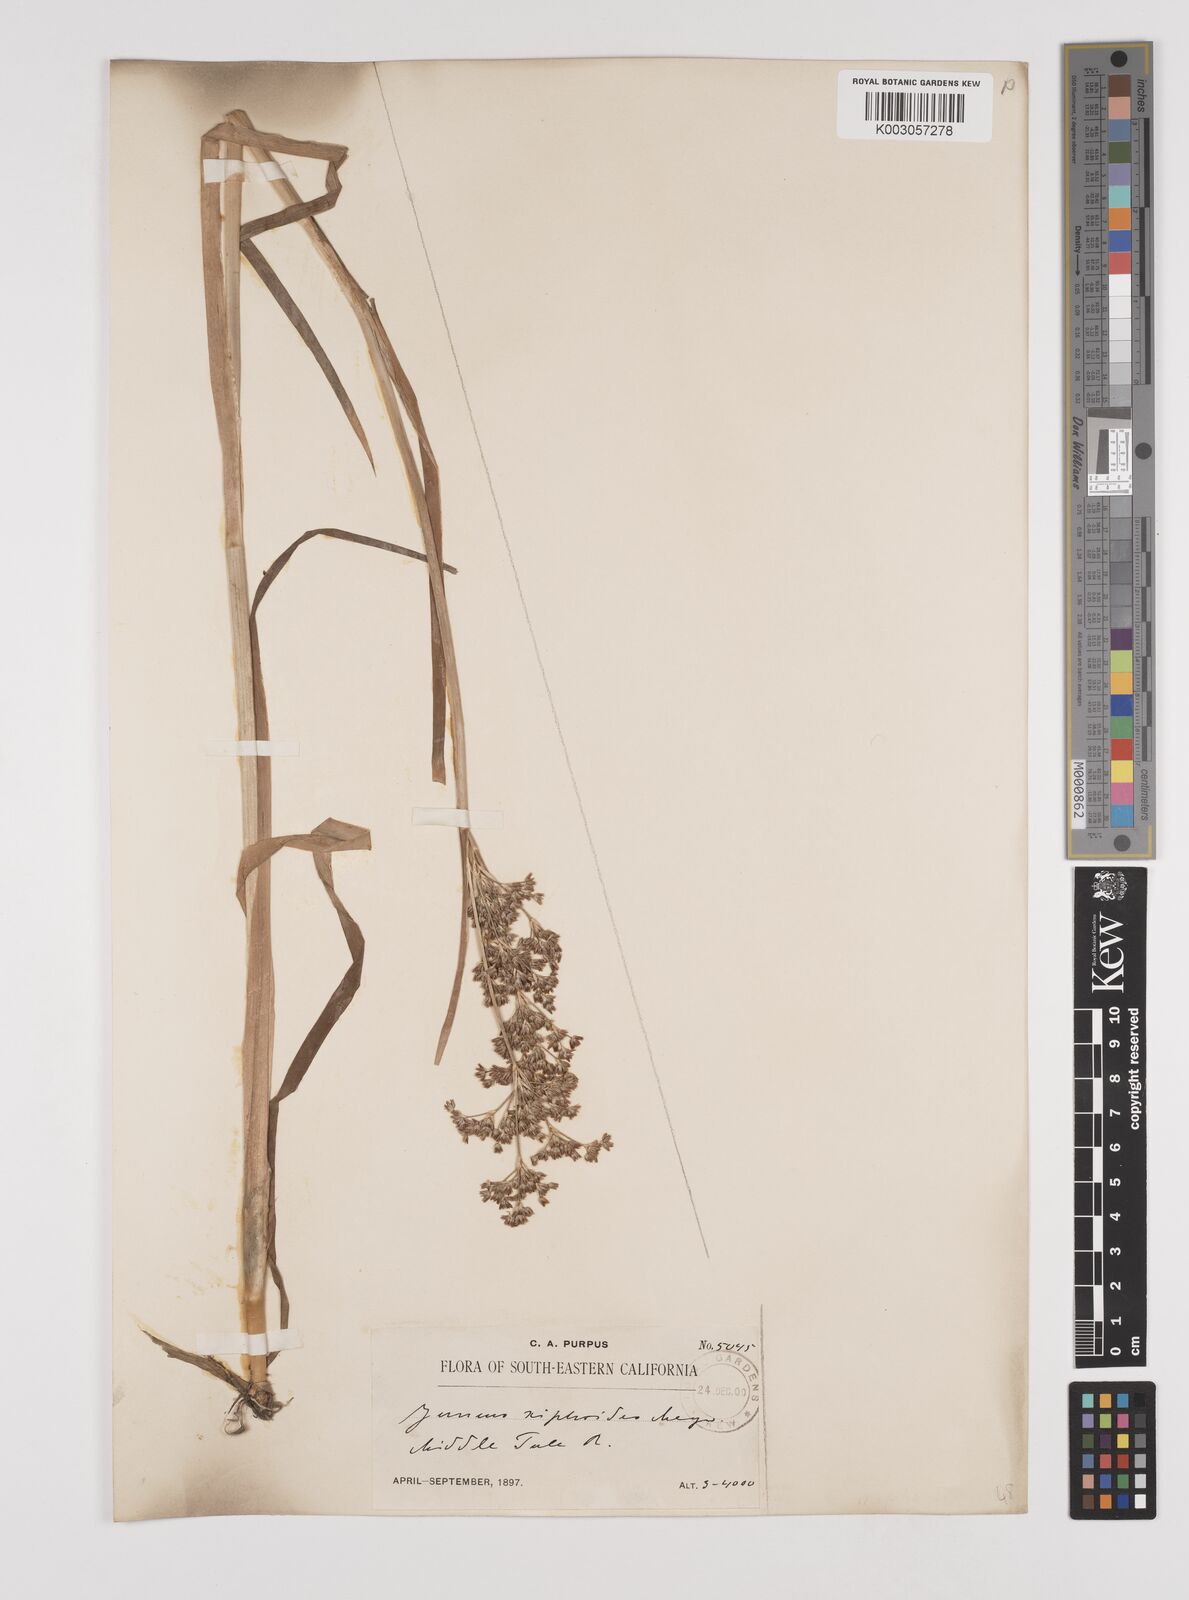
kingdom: Plantae
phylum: Tracheophyta
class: Liliopsida
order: Poales
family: Juncaceae
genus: Juncus
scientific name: Juncus xiphioides
